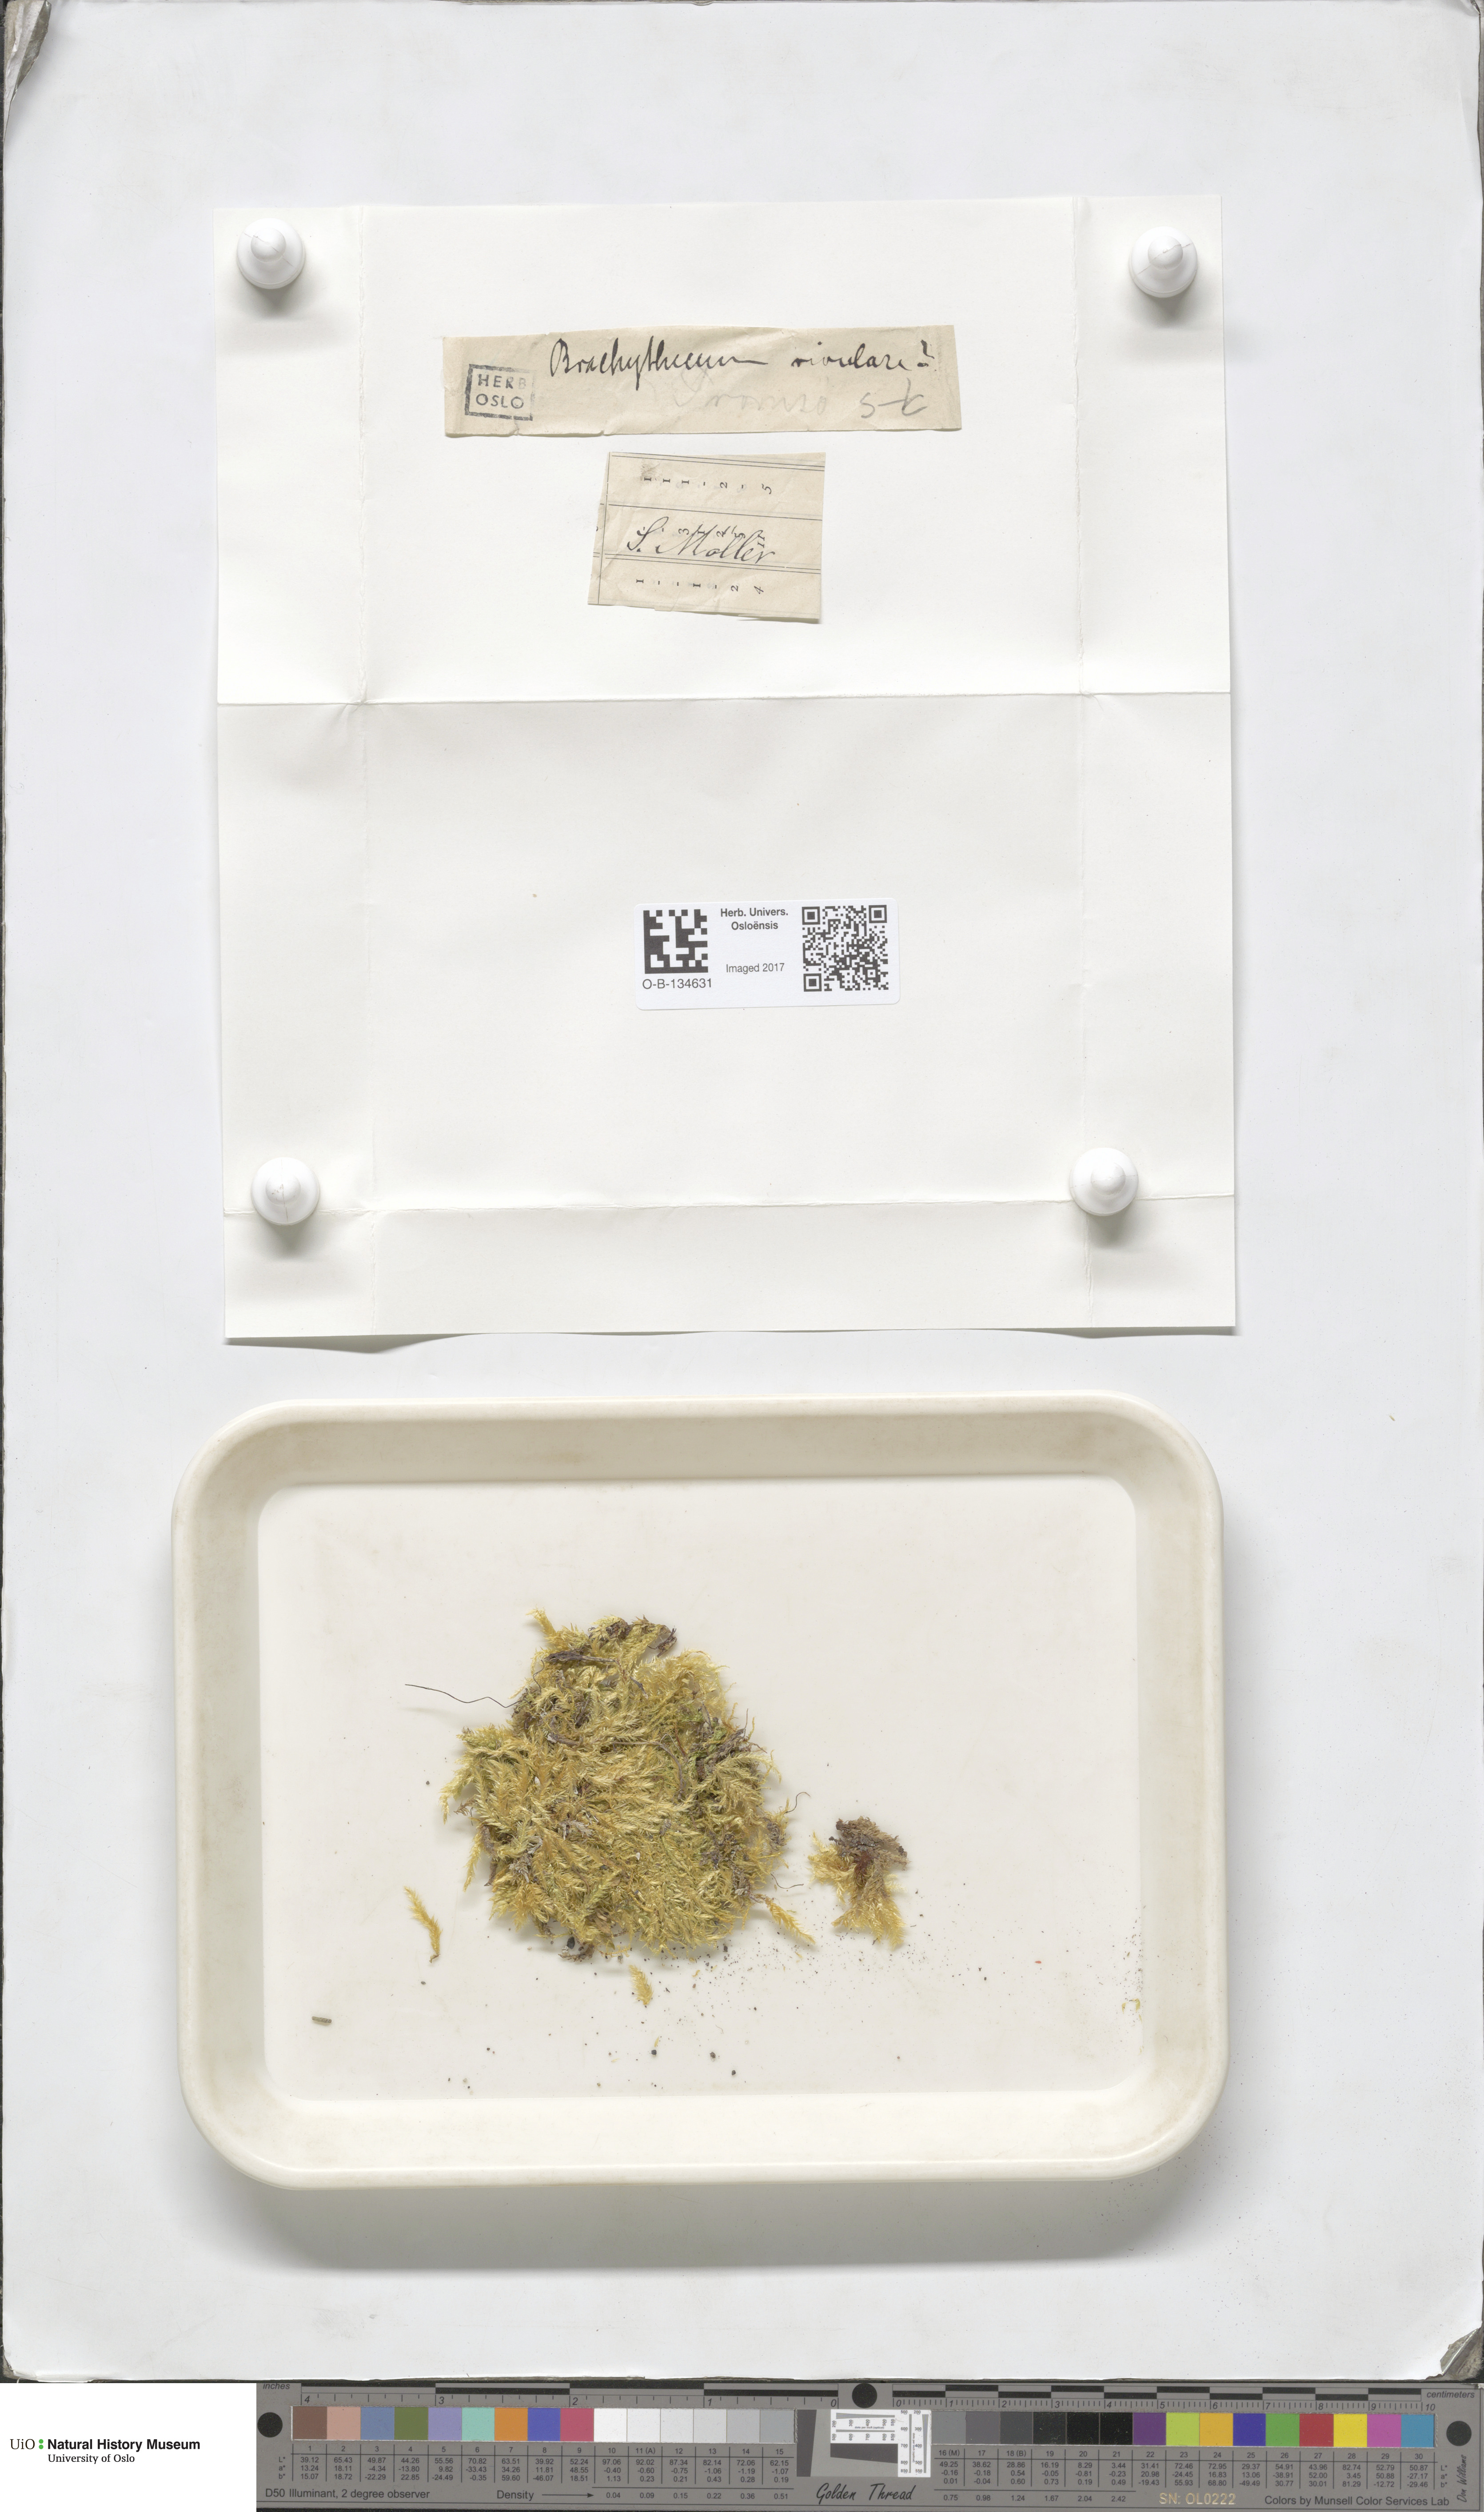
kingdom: Plantae
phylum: Bryophyta
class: Bryopsida
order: Hypnales
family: Brachytheciaceae
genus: Brachythecium
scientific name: Brachythecium rivulare
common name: River ragged moss
